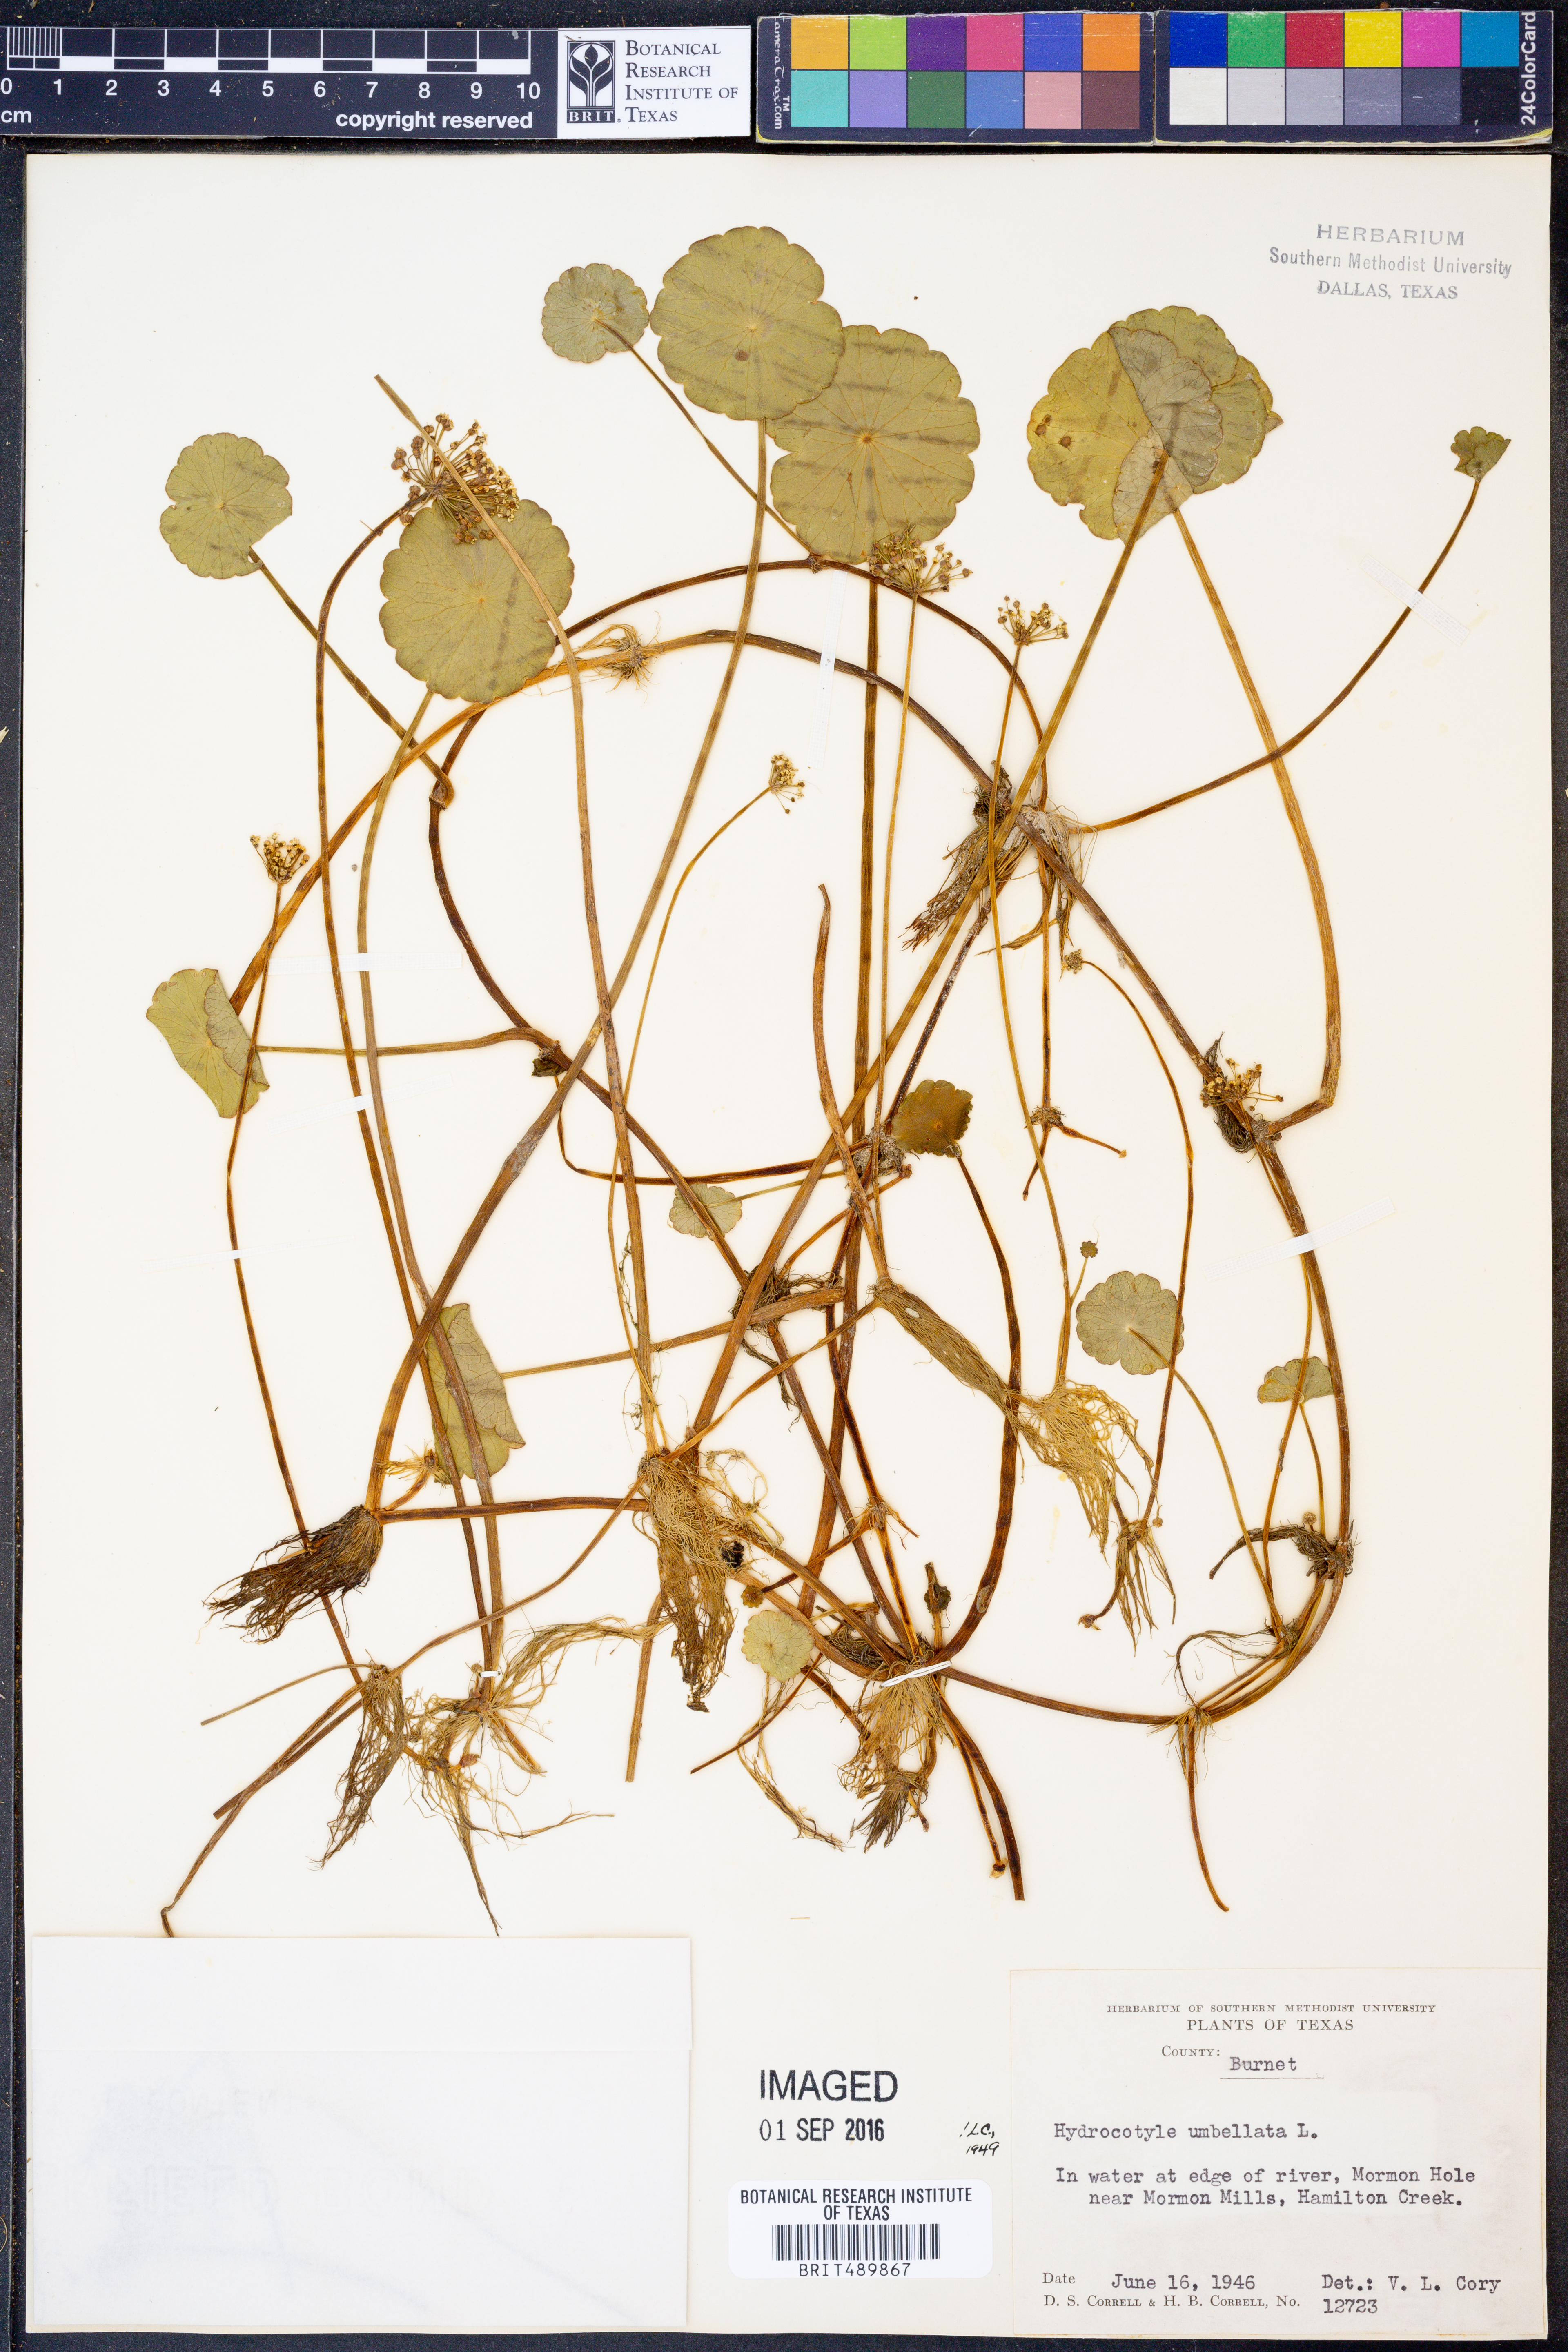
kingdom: Plantae
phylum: Tracheophyta
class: Magnoliopsida
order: Apiales
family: Araliaceae
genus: Hydrocotyle
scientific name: Hydrocotyle umbellata
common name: Water pennywort
